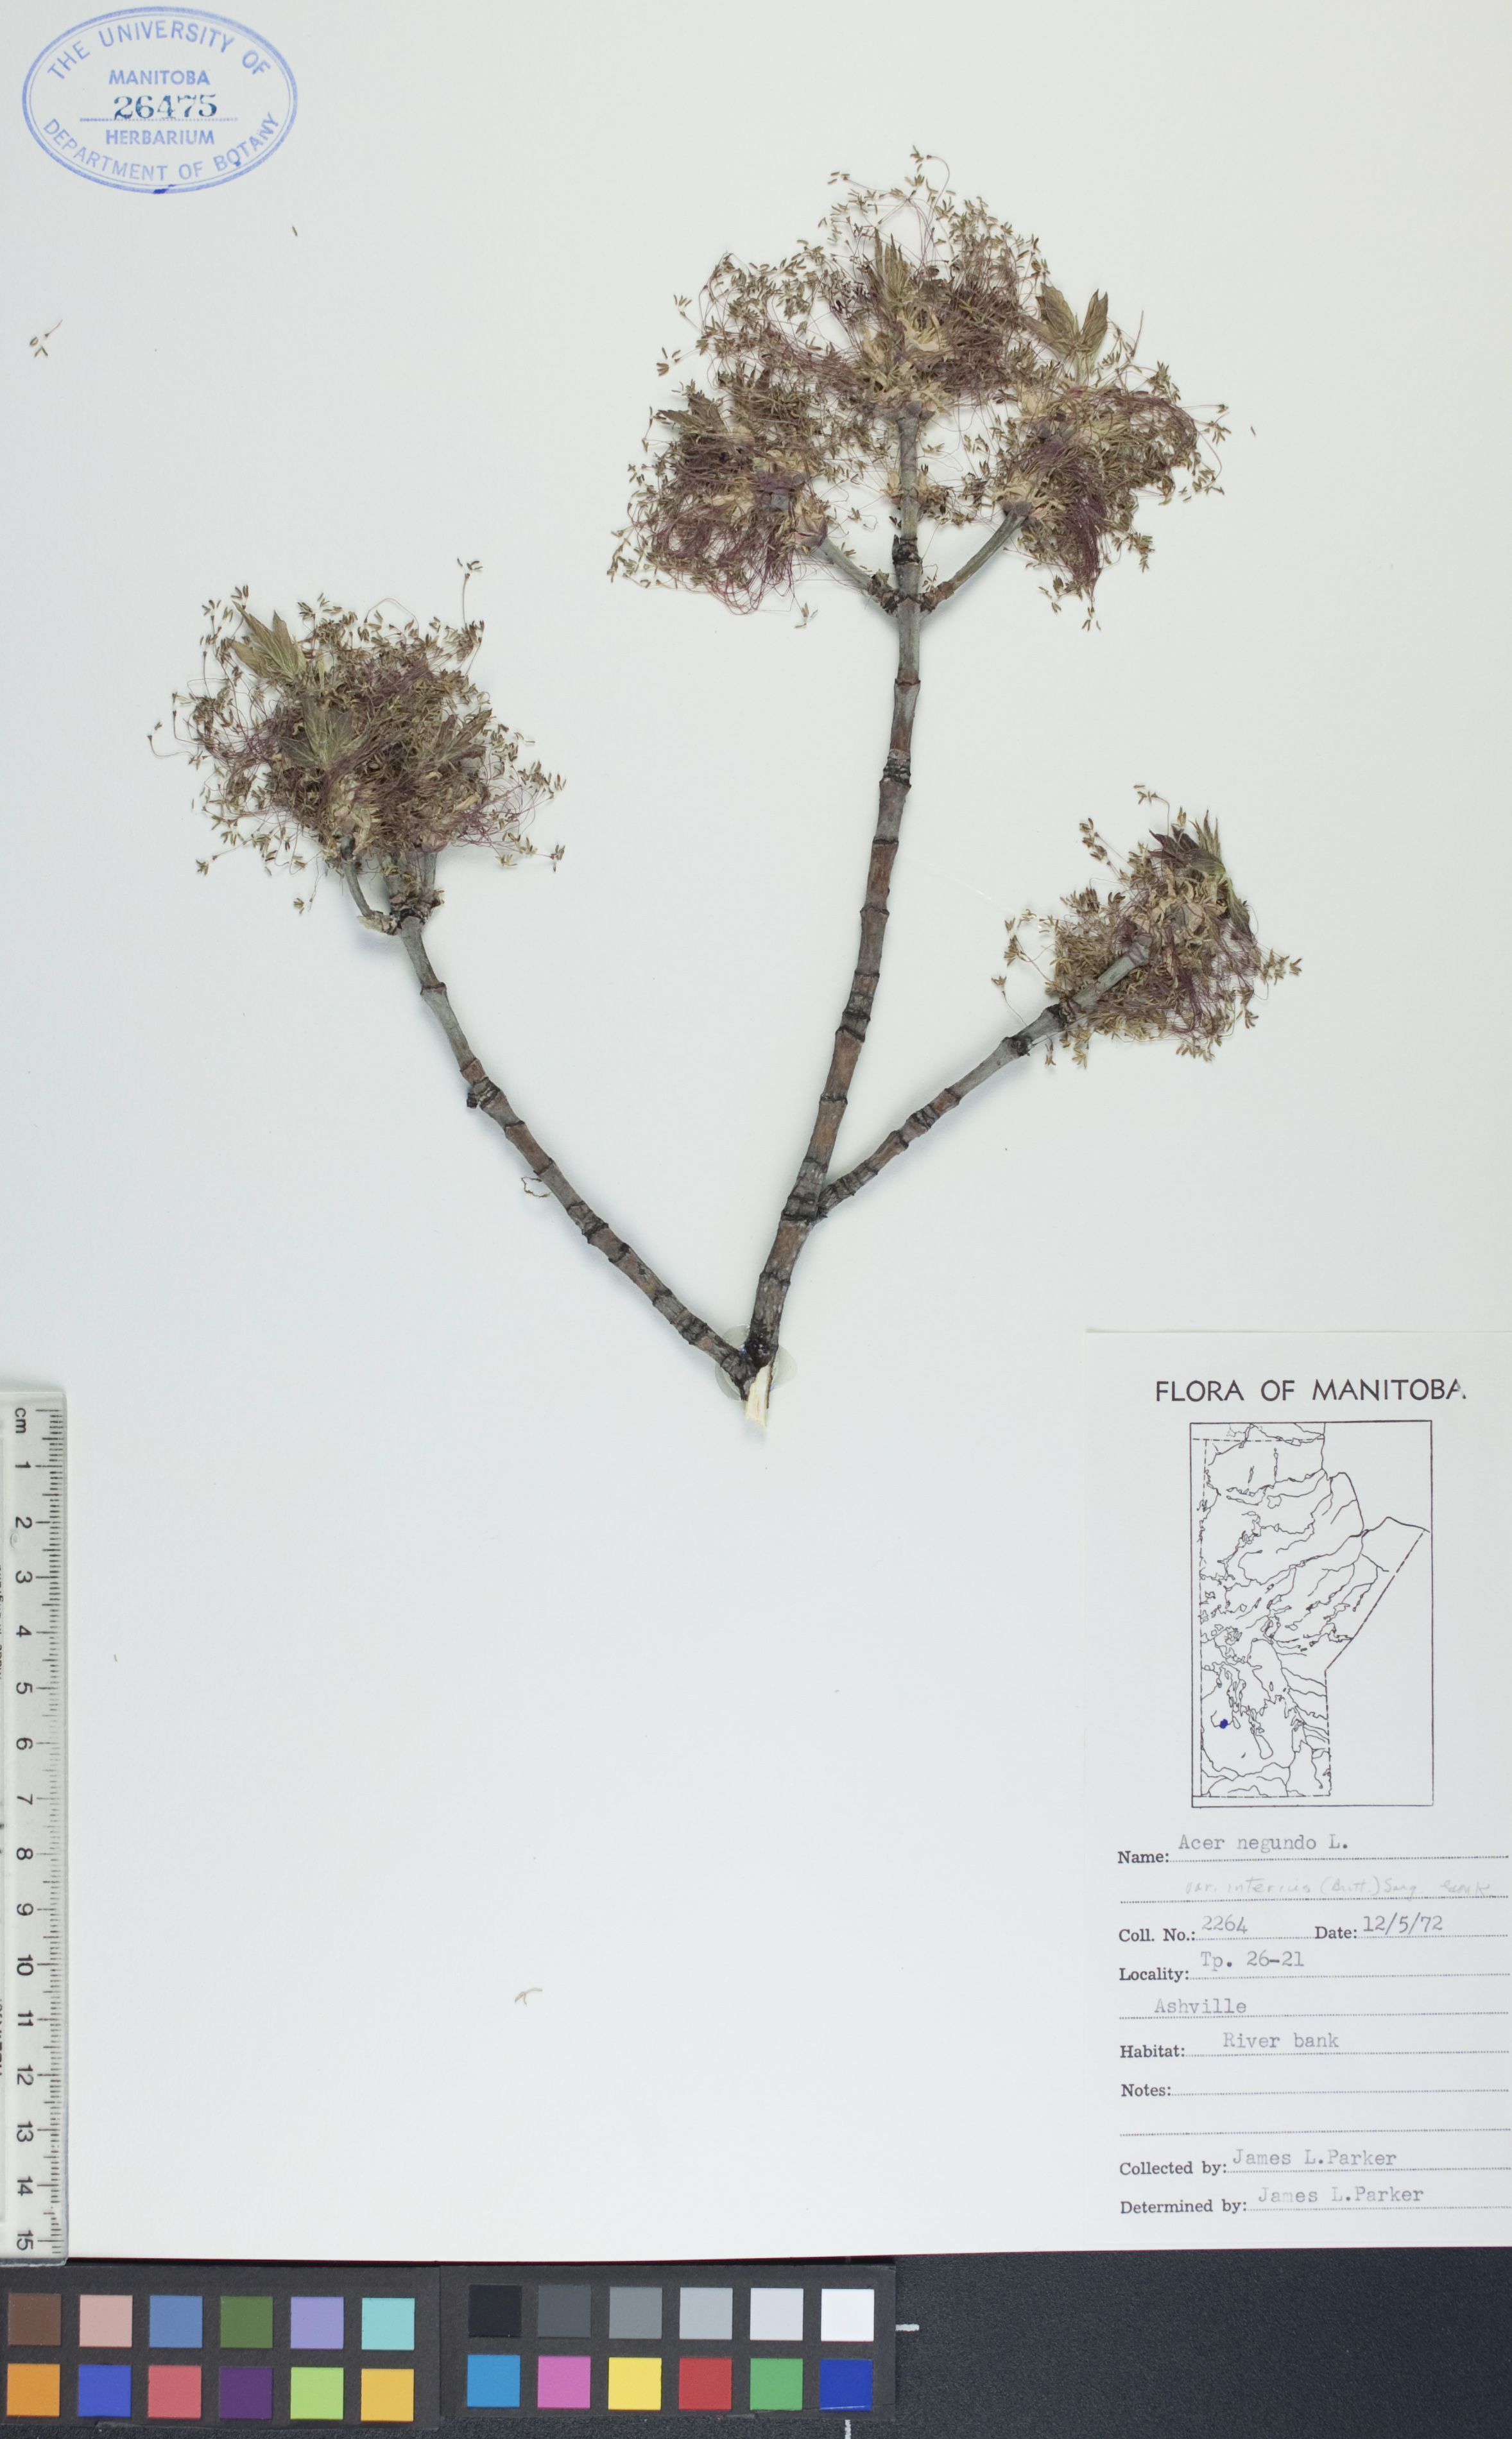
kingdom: Plantae
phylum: Tracheophyta
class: Magnoliopsida
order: Sapindales
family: Sapindaceae
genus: Acer
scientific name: Acer negundo
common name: Ashleaf maple
